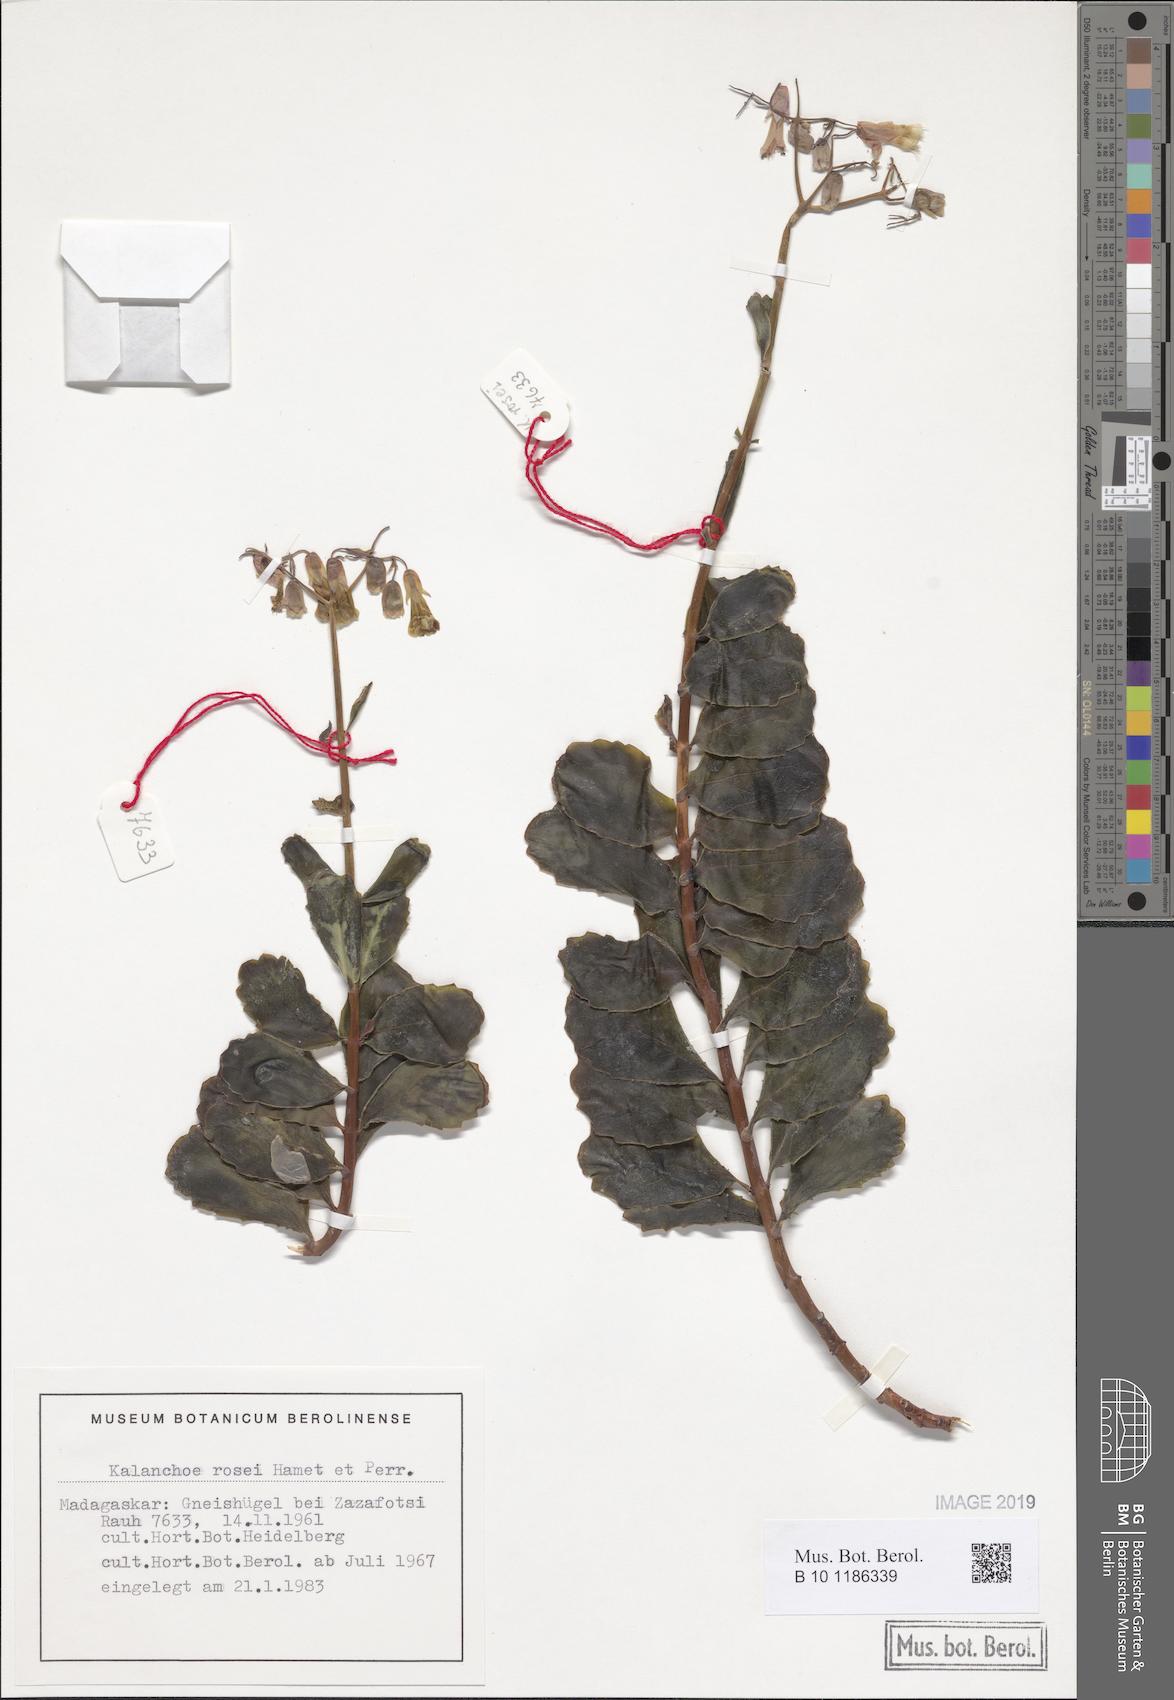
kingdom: Plantae
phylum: Tracheophyta
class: Magnoliopsida
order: Saxifragales
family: Crassulaceae
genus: Kalanchoe
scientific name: Kalanchoe rosei
